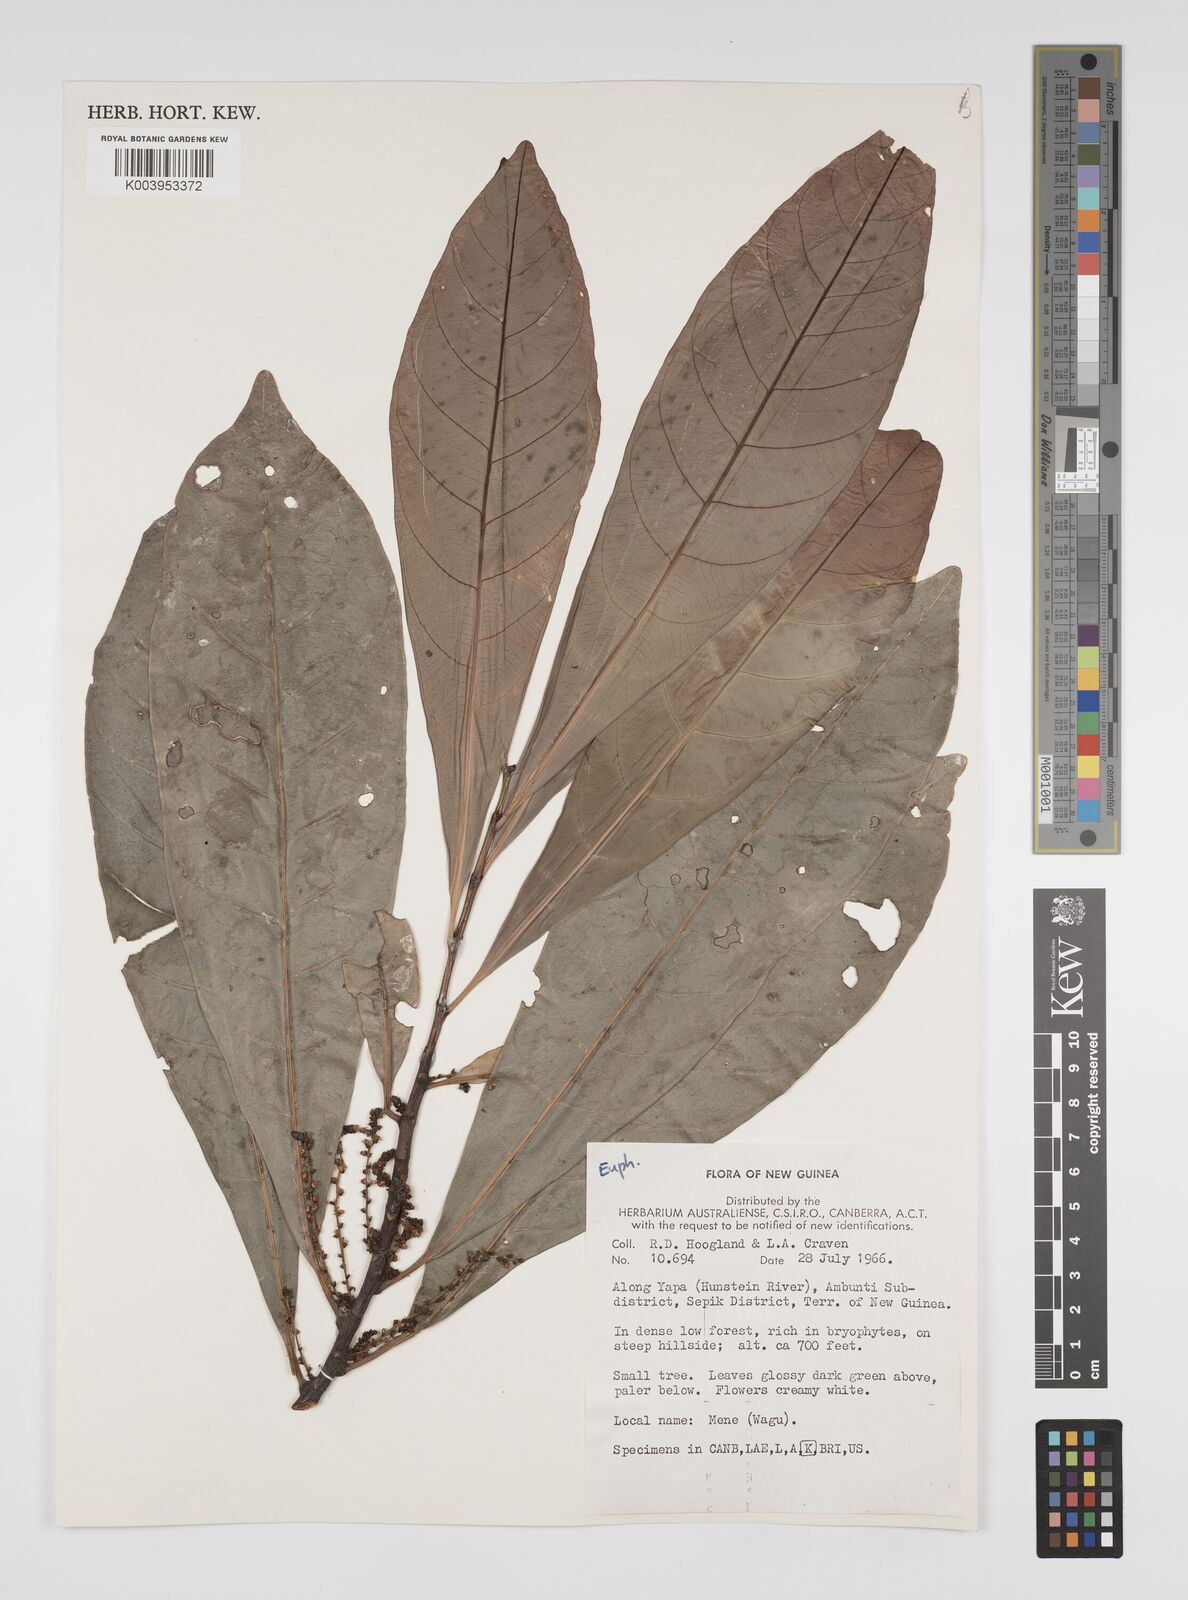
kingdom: Plantae
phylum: Tracheophyta
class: Magnoliopsida
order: Malpighiales
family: Euphorbiaceae
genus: Agrostistachys
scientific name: Agrostistachys
